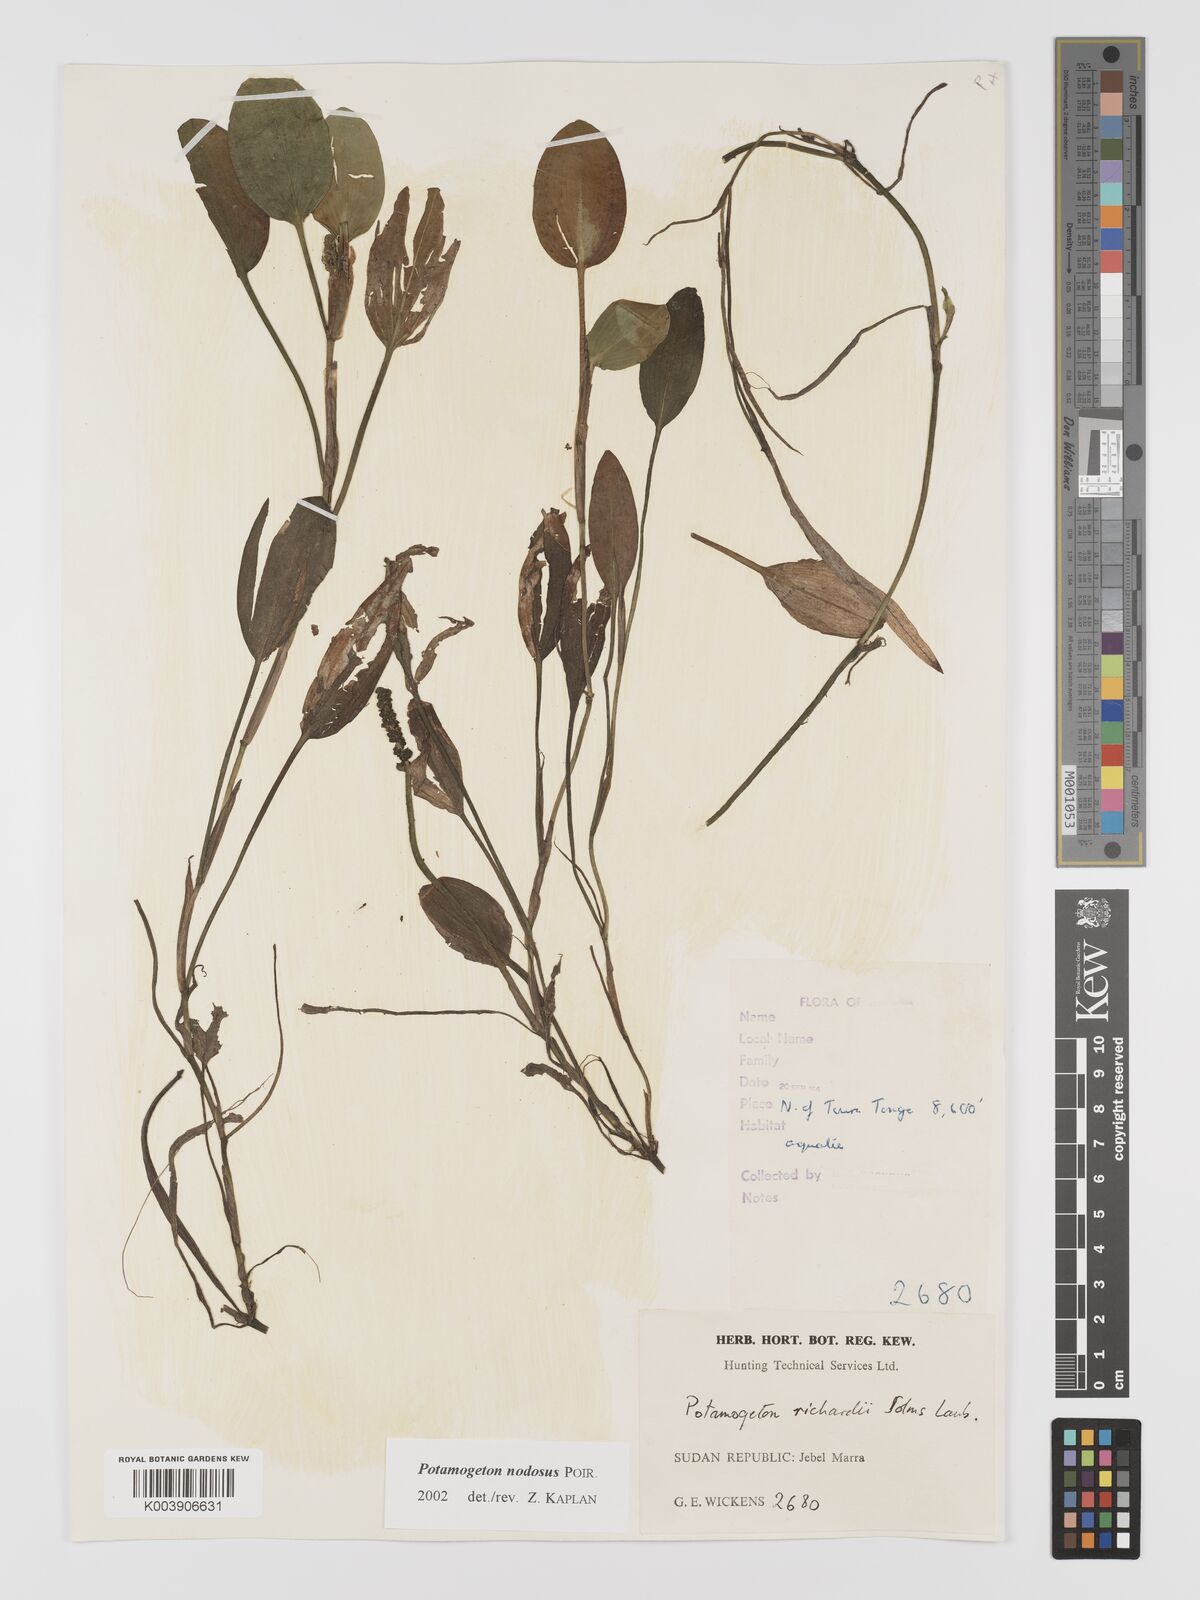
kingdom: Plantae
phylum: Tracheophyta
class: Liliopsida
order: Alismatales
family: Potamogetonaceae
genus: Potamogeton
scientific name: Potamogeton nodosus
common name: Loddon pondweed
